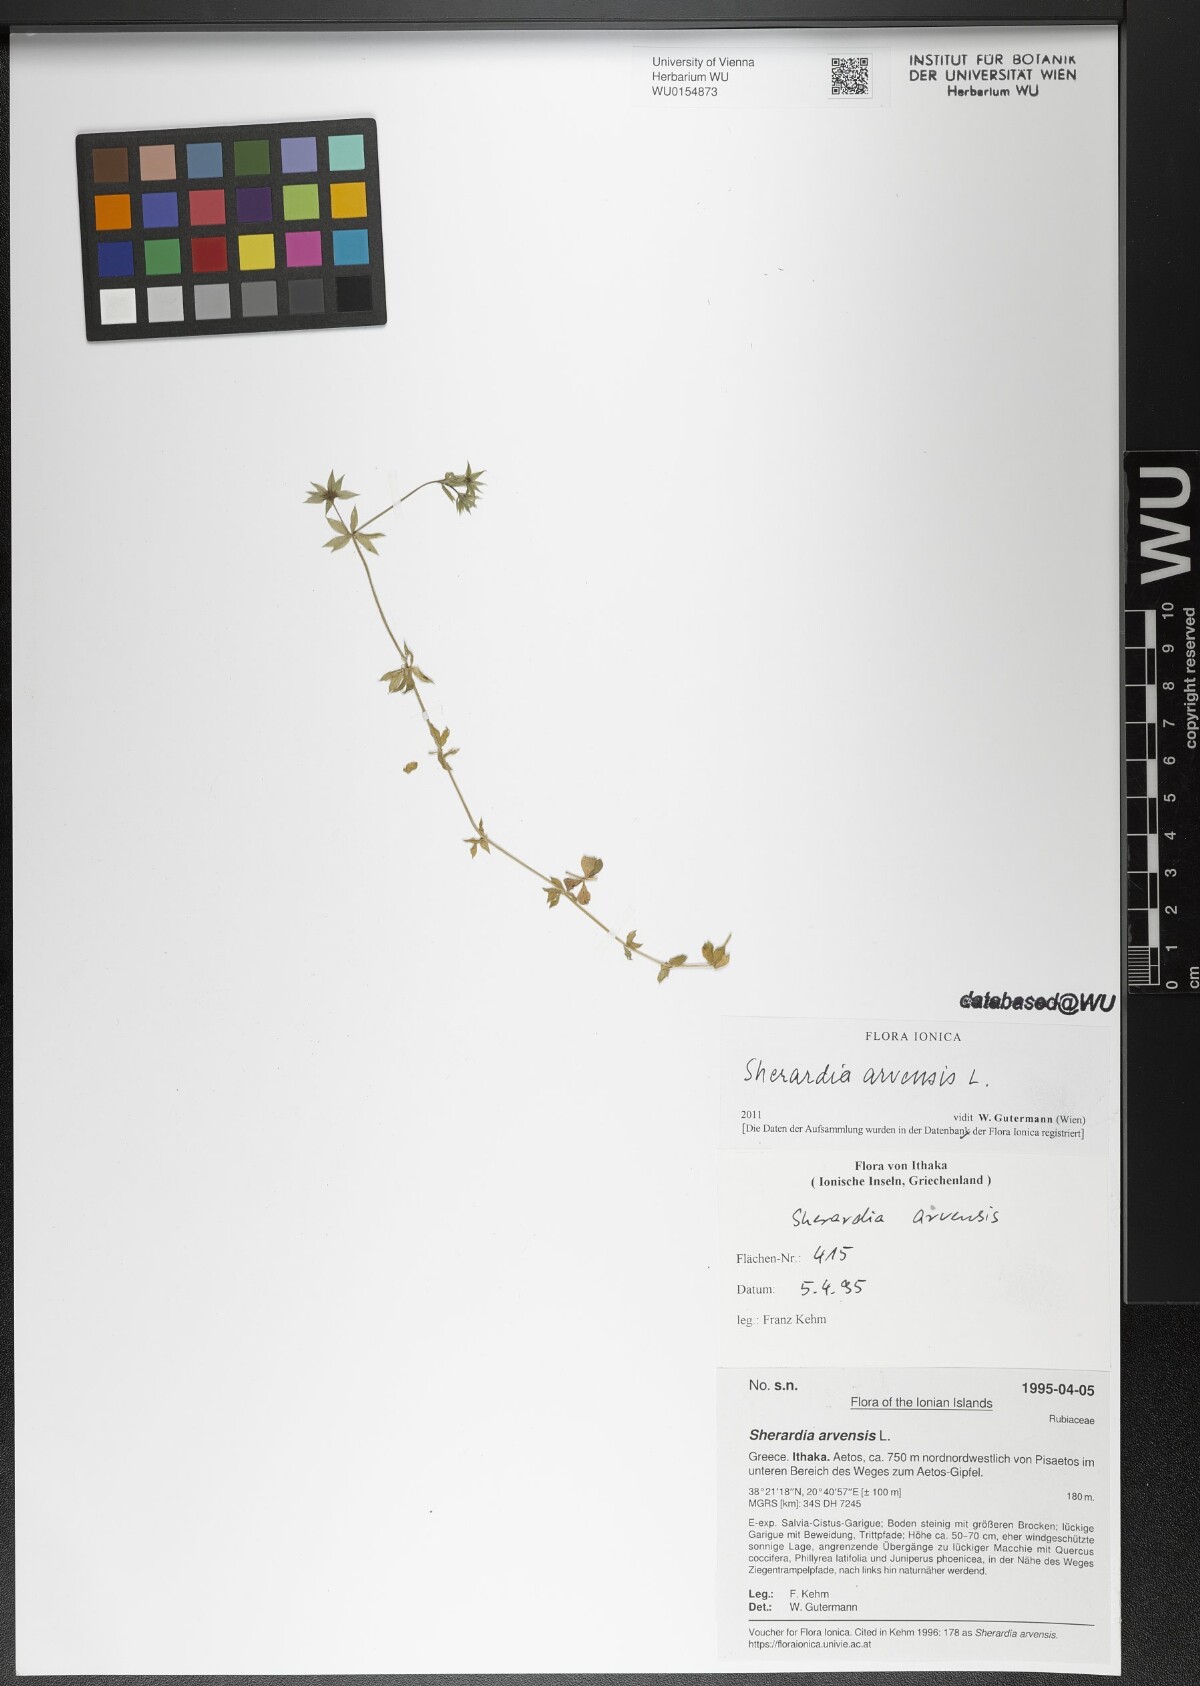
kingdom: Plantae
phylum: Tracheophyta
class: Magnoliopsida
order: Gentianales
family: Rubiaceae
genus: Sherardia
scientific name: Sherardia arvensis
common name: Field madder
